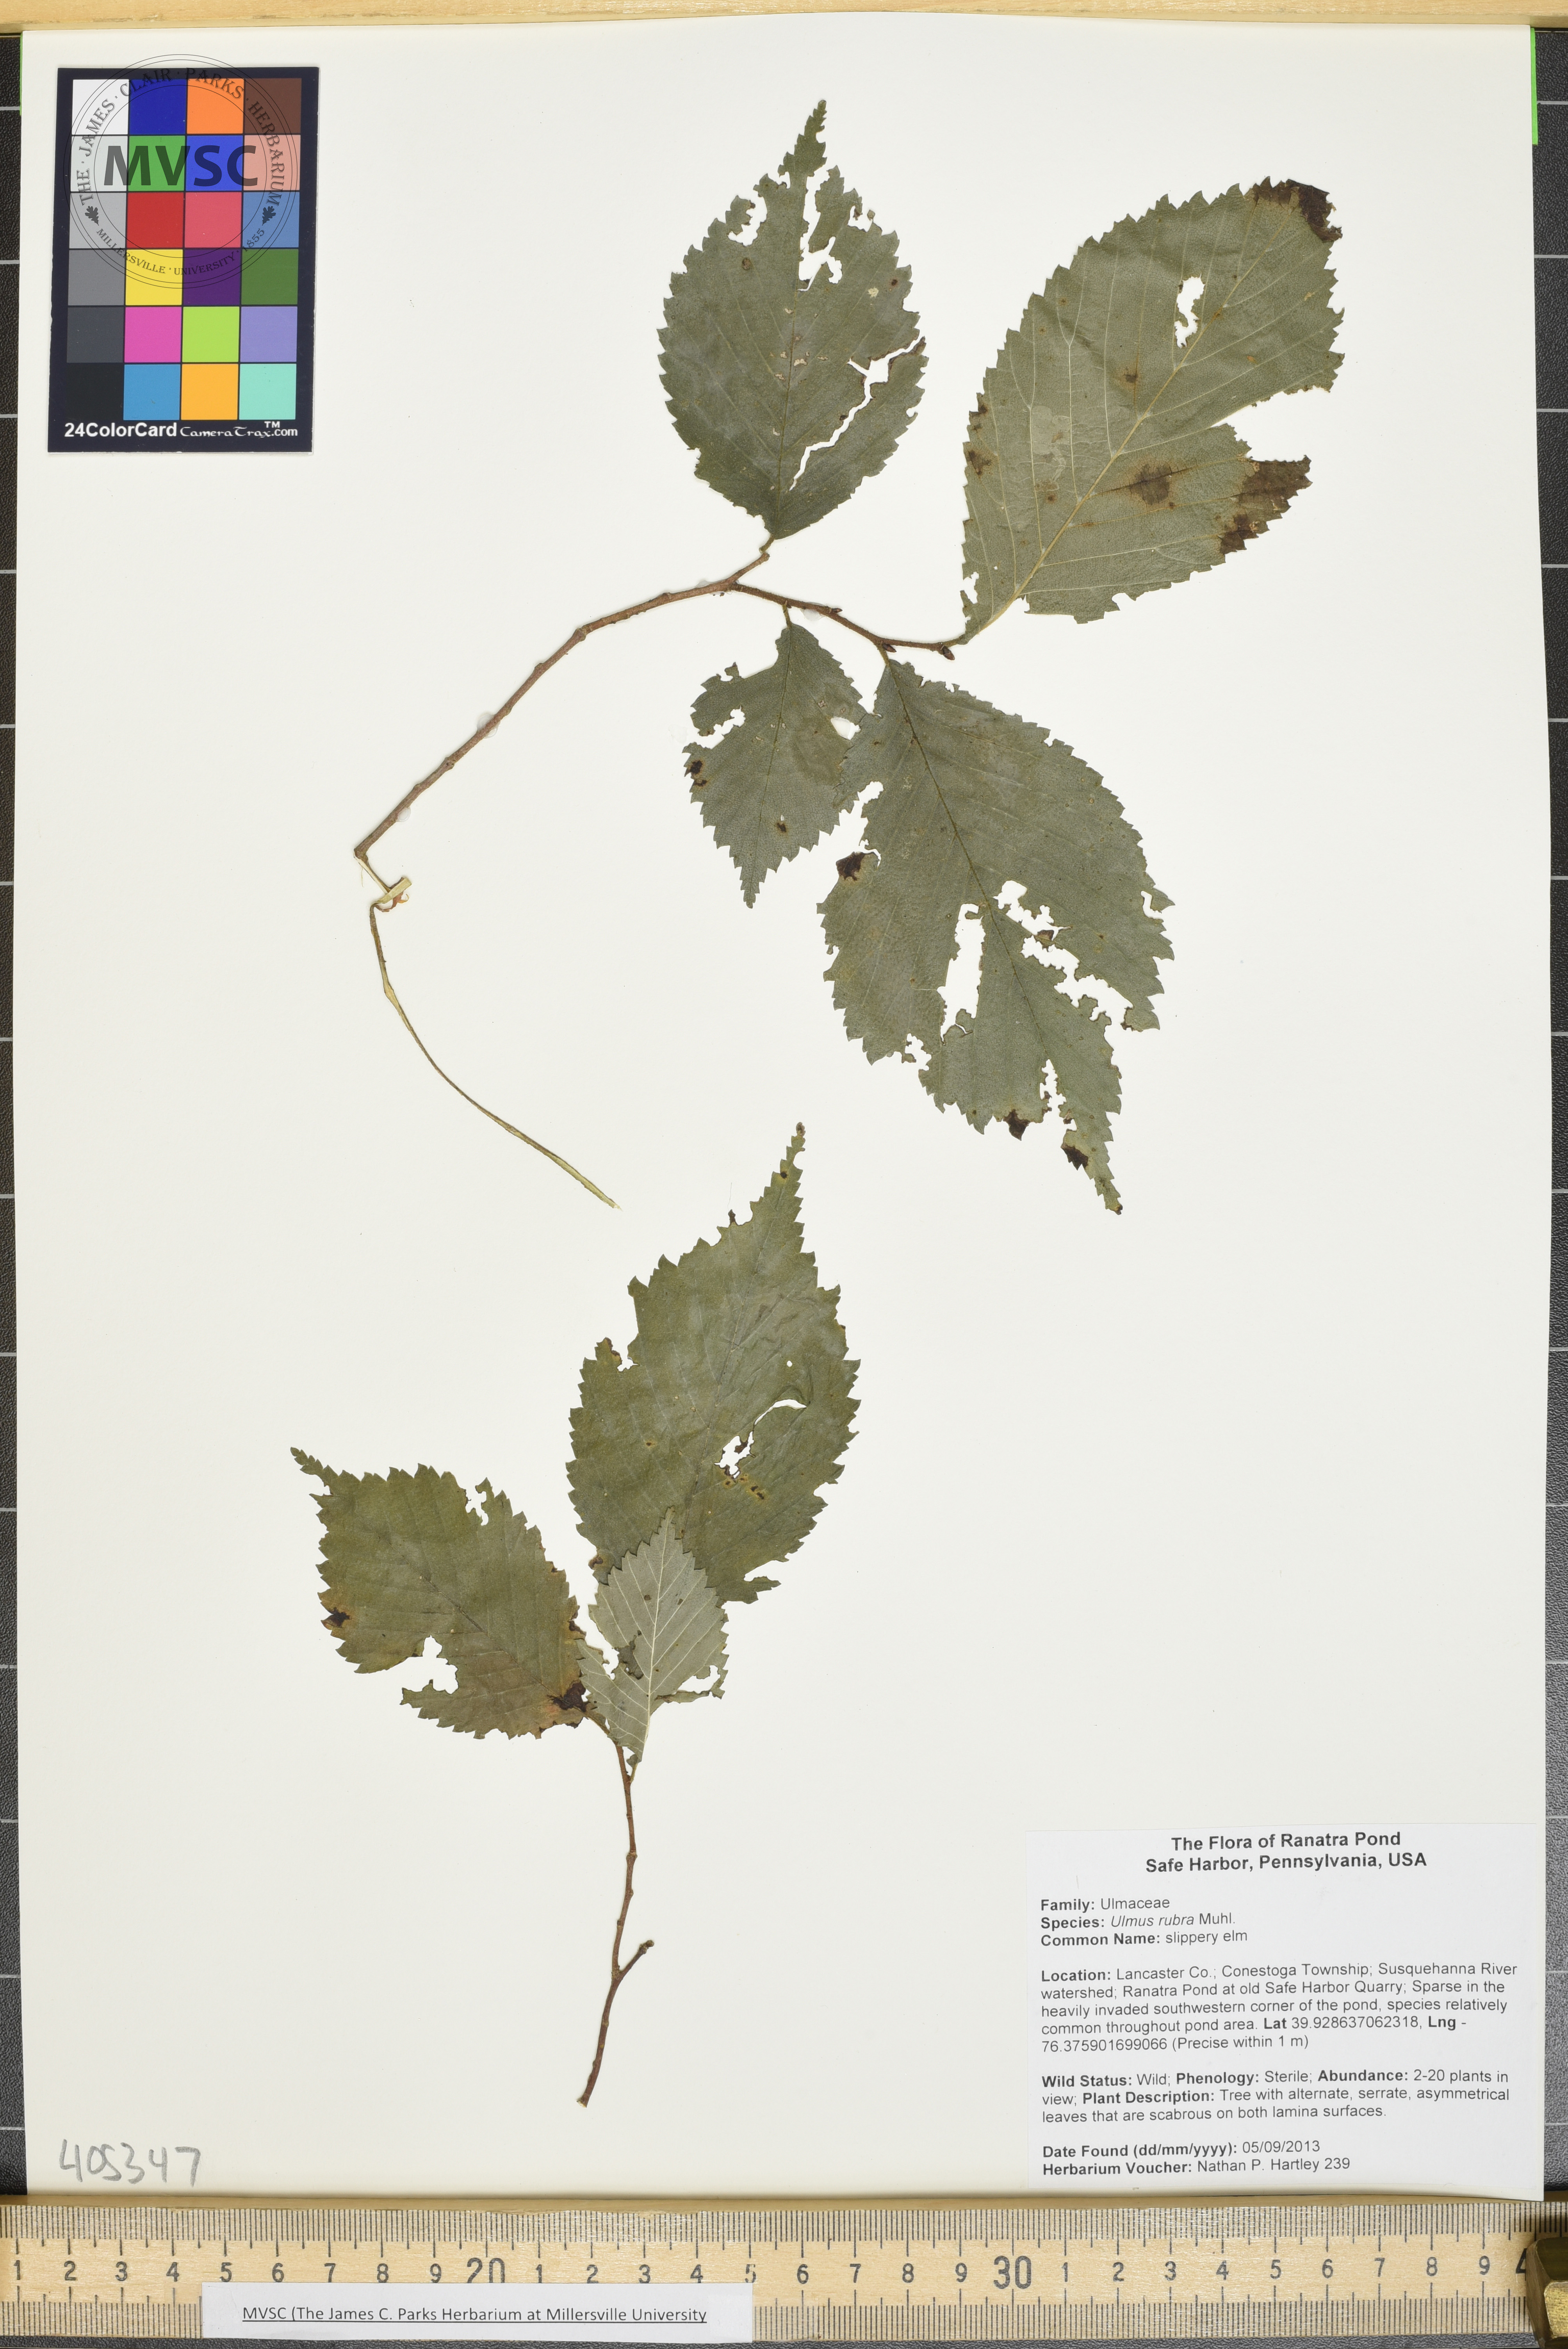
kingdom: Plantae
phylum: Tracheophyta
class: Magnoliopsida
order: Rosales
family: Ulmaceae
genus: Ulmus
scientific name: Ulmus rubra
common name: slippery elm
